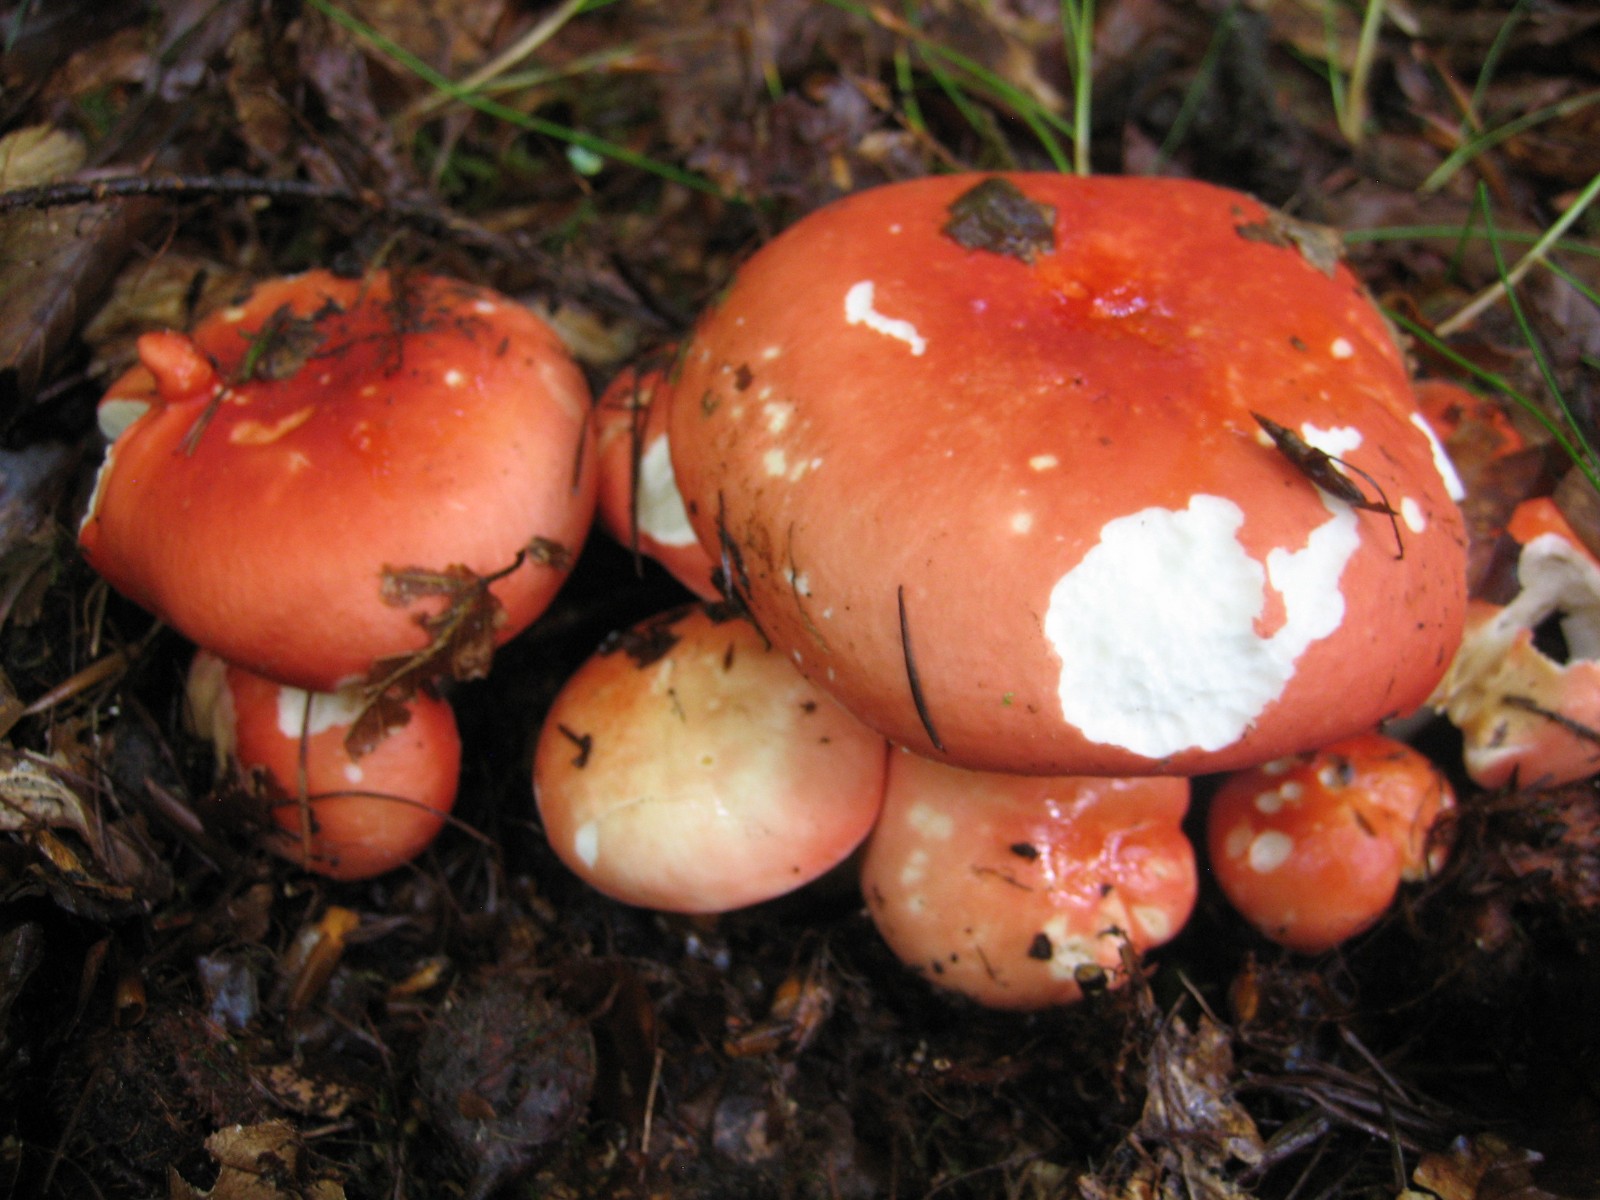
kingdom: Fungi
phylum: Basidiomycota
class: Agaricomycetes
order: Russulales
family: Russulaceae
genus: Russula
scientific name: Russula rosea
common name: fastkødet skørhat
